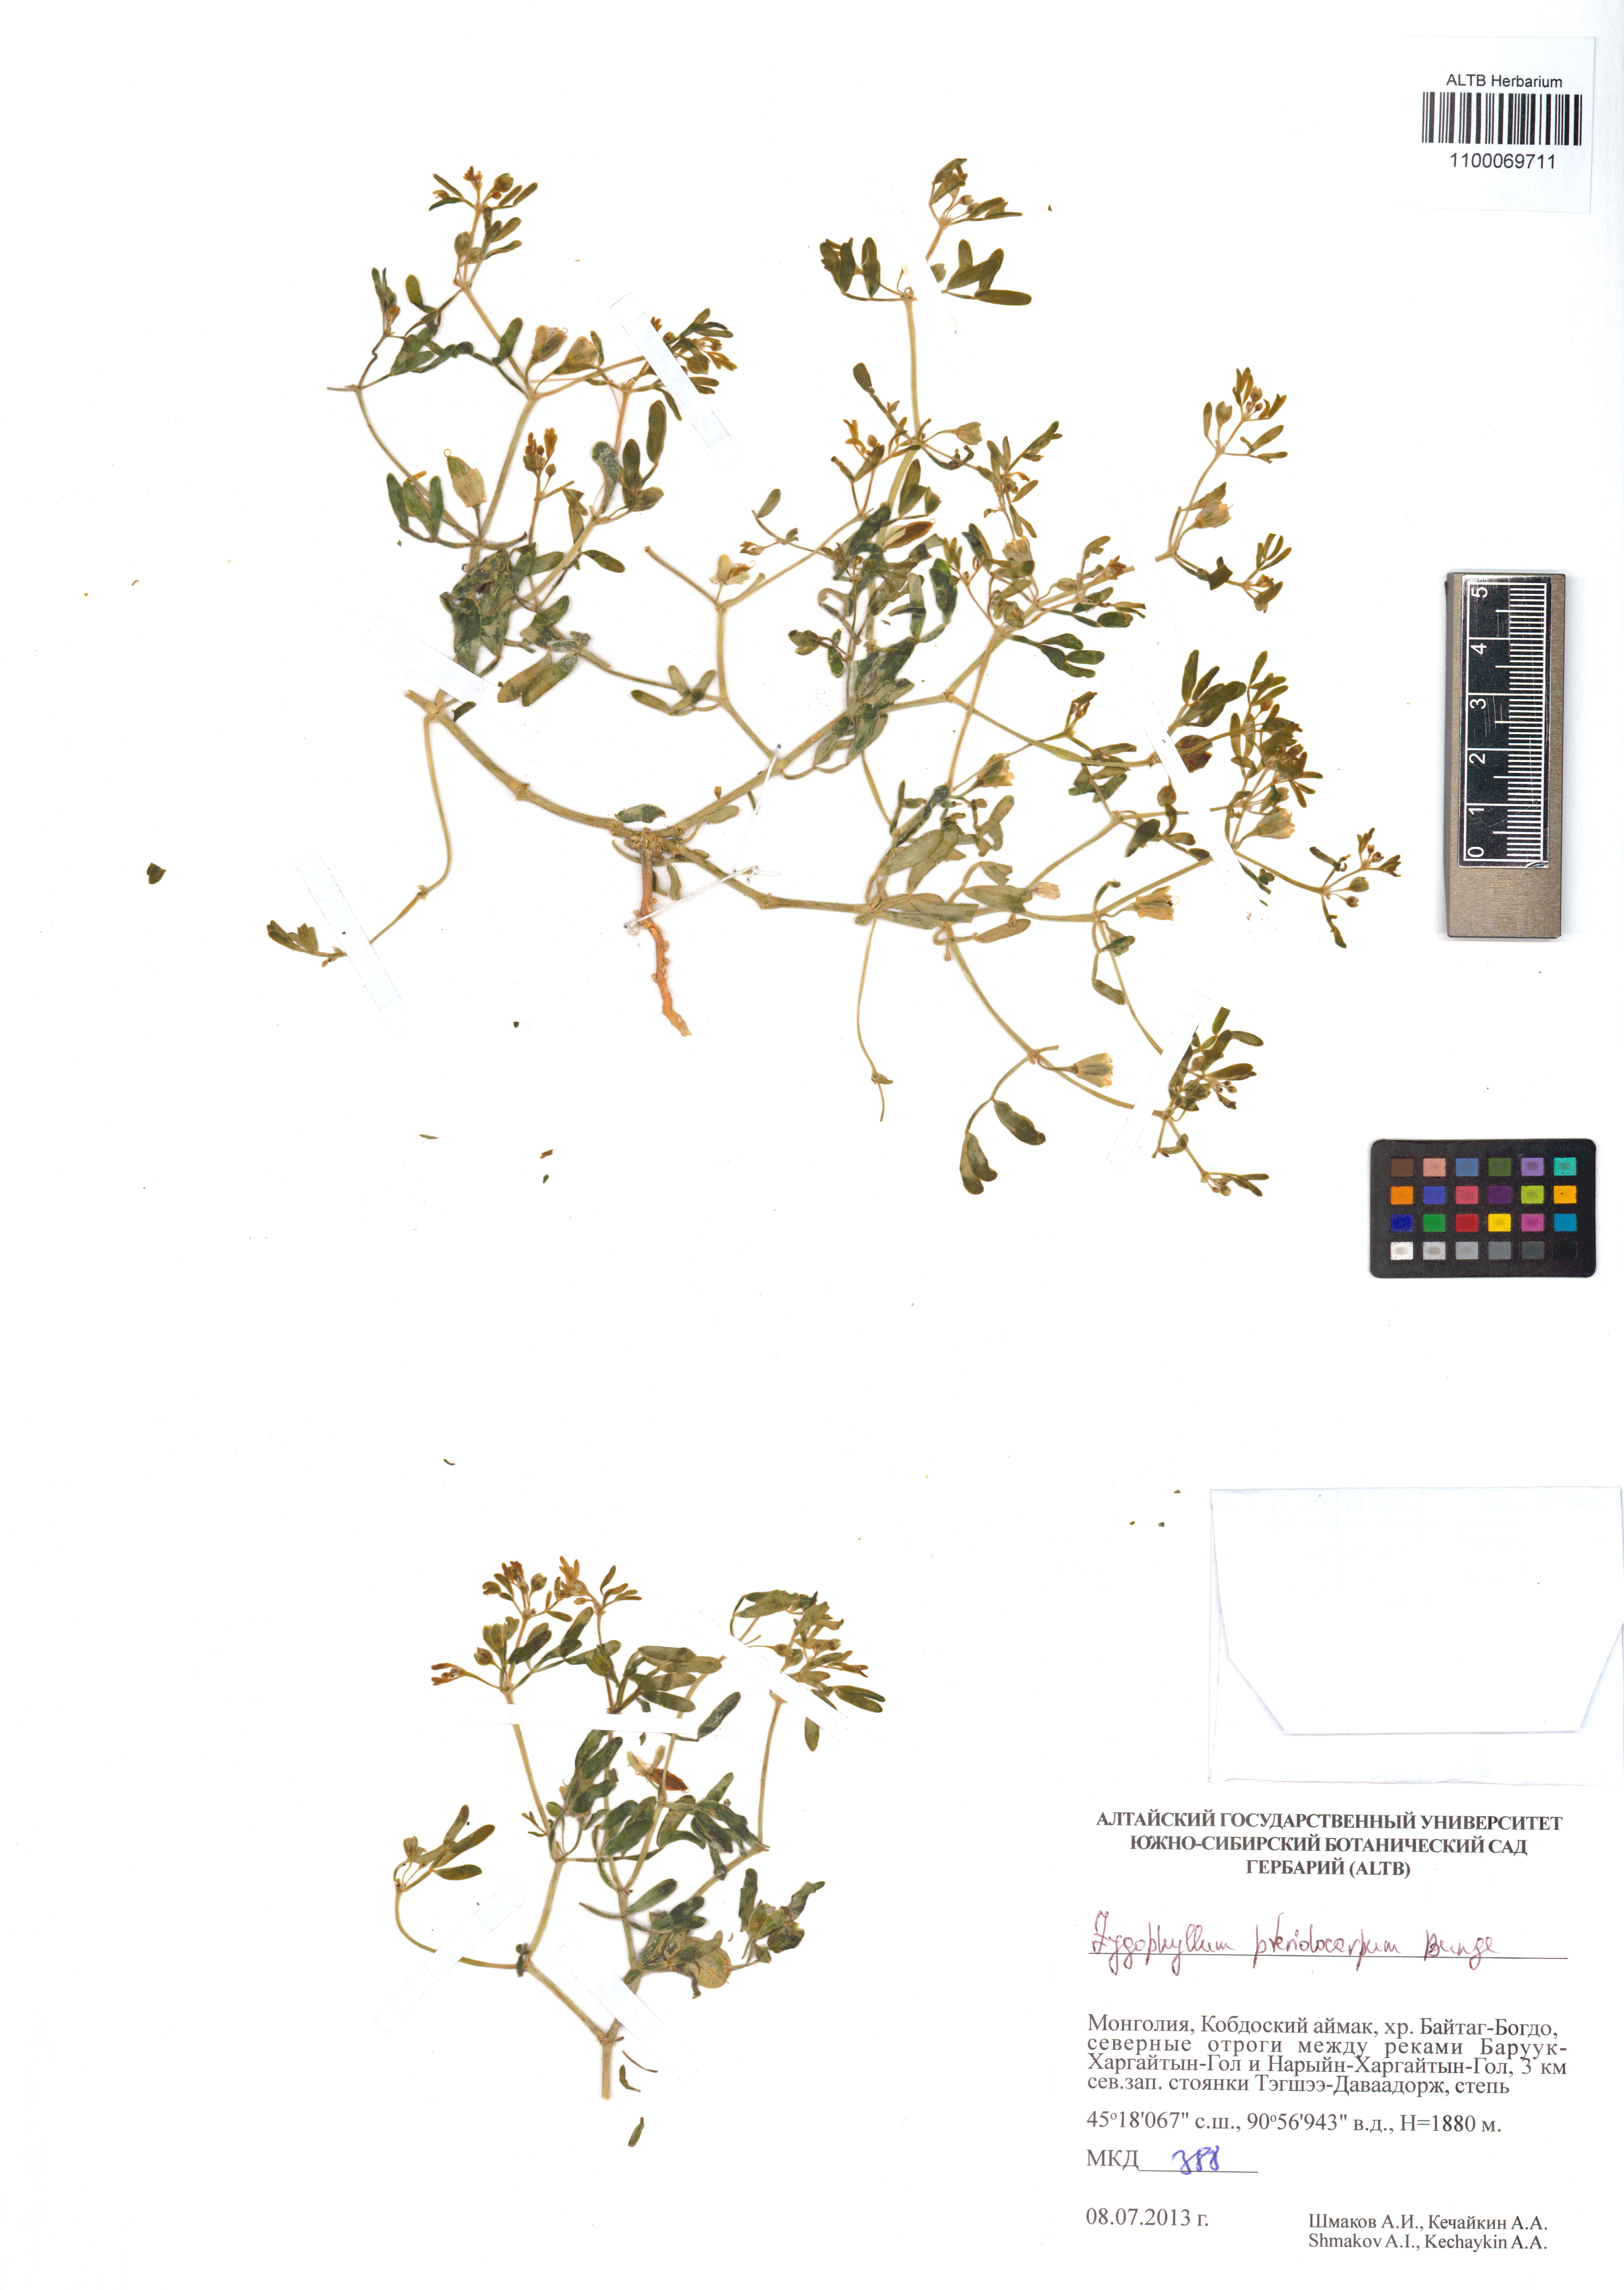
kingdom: Plantae
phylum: Tracheophyta
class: Magnoliopsida
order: Zygophyllales
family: Zygophyllaceae
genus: Zygophyllum
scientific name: Zygophyllum pterocarpum
